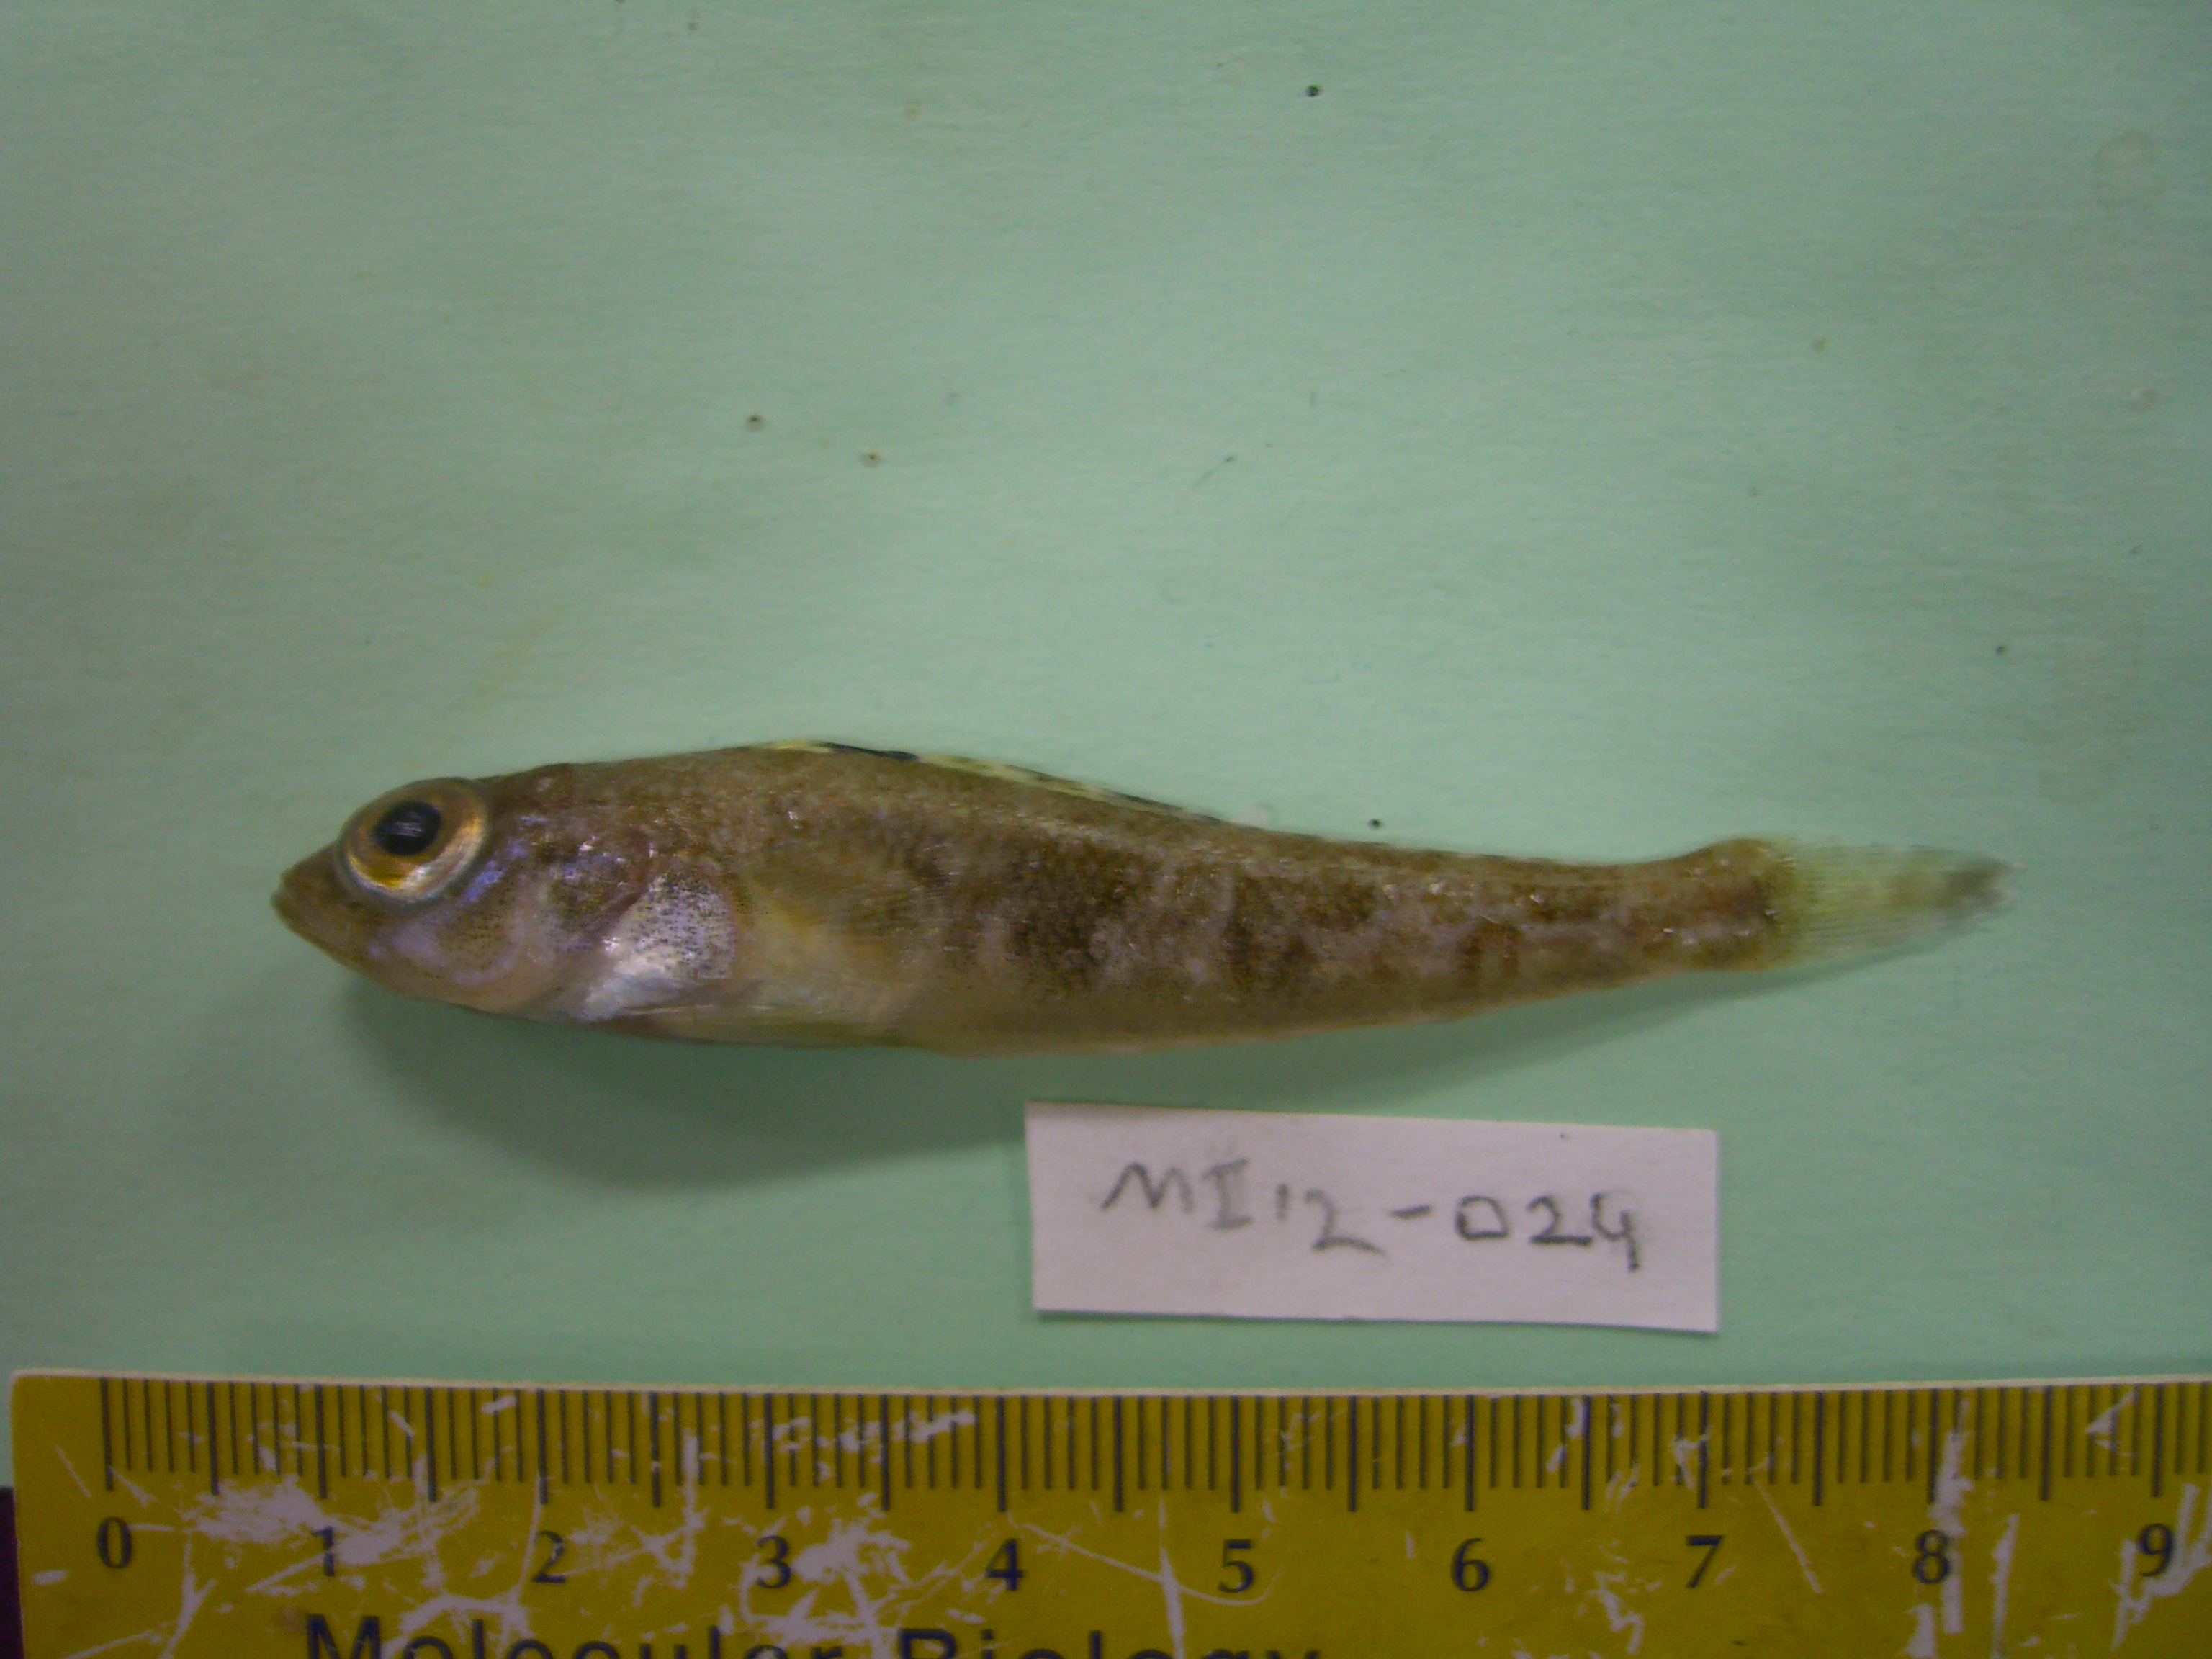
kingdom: Animalia
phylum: Chordata
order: Perciformes
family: Nototheniidae
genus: Nototheniops
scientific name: Nototheniops larseni
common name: Painted notie
